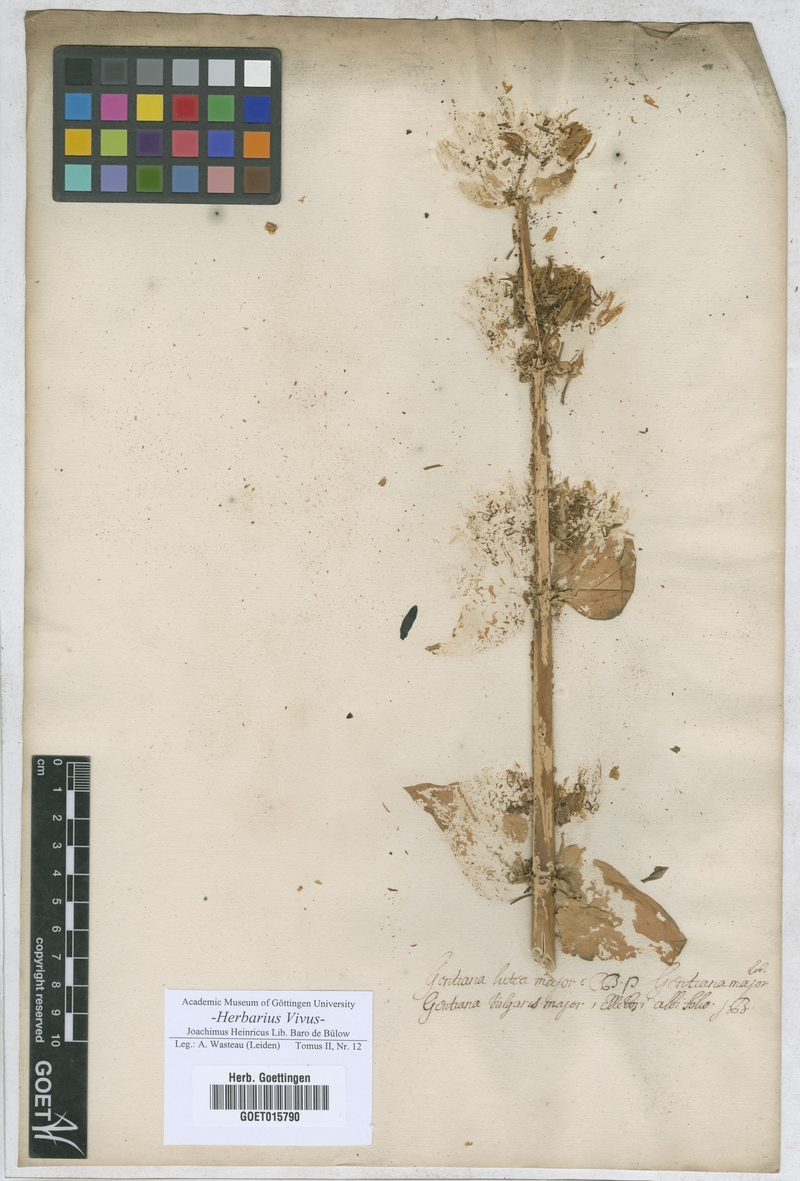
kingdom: Plantae
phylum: Tracheophyta
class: Magnoliopsida
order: Gentianales
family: Gentianaceae
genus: Gentiana
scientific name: Gentiana lutea
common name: Great yellow gentian
